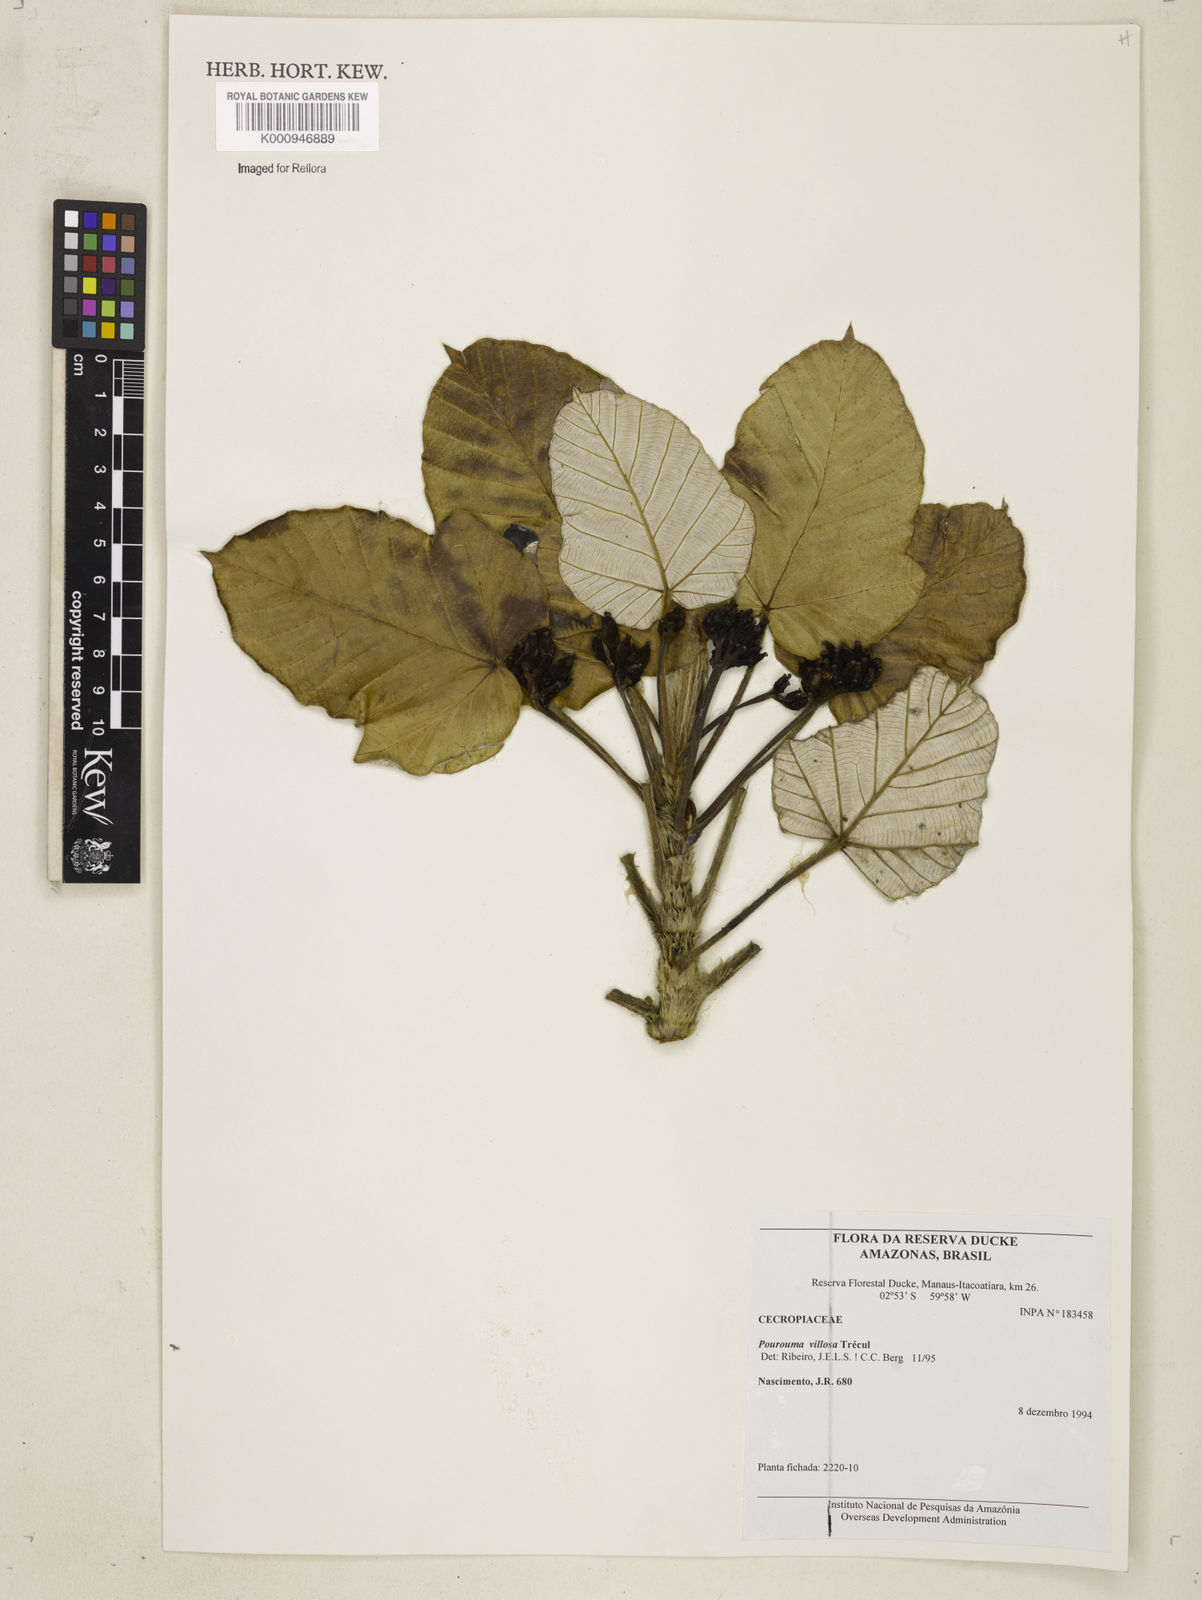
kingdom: Plantae
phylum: Tracheophyta
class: Magnoliopsida
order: Rosales
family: Urticaceae
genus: Pourouma
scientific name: Pourouma
